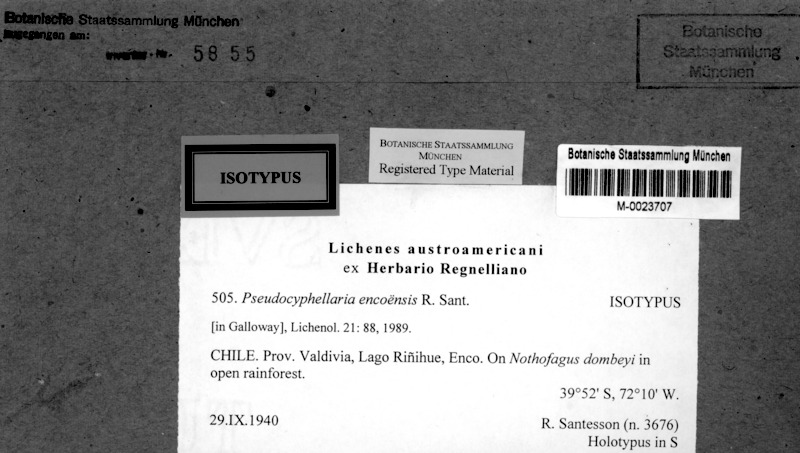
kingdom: Fungi
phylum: Ascomycota
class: Lecanoromycetes
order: Peltigerales
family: Lobariaceae
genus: Podostictina
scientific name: Podostictina encoensis
